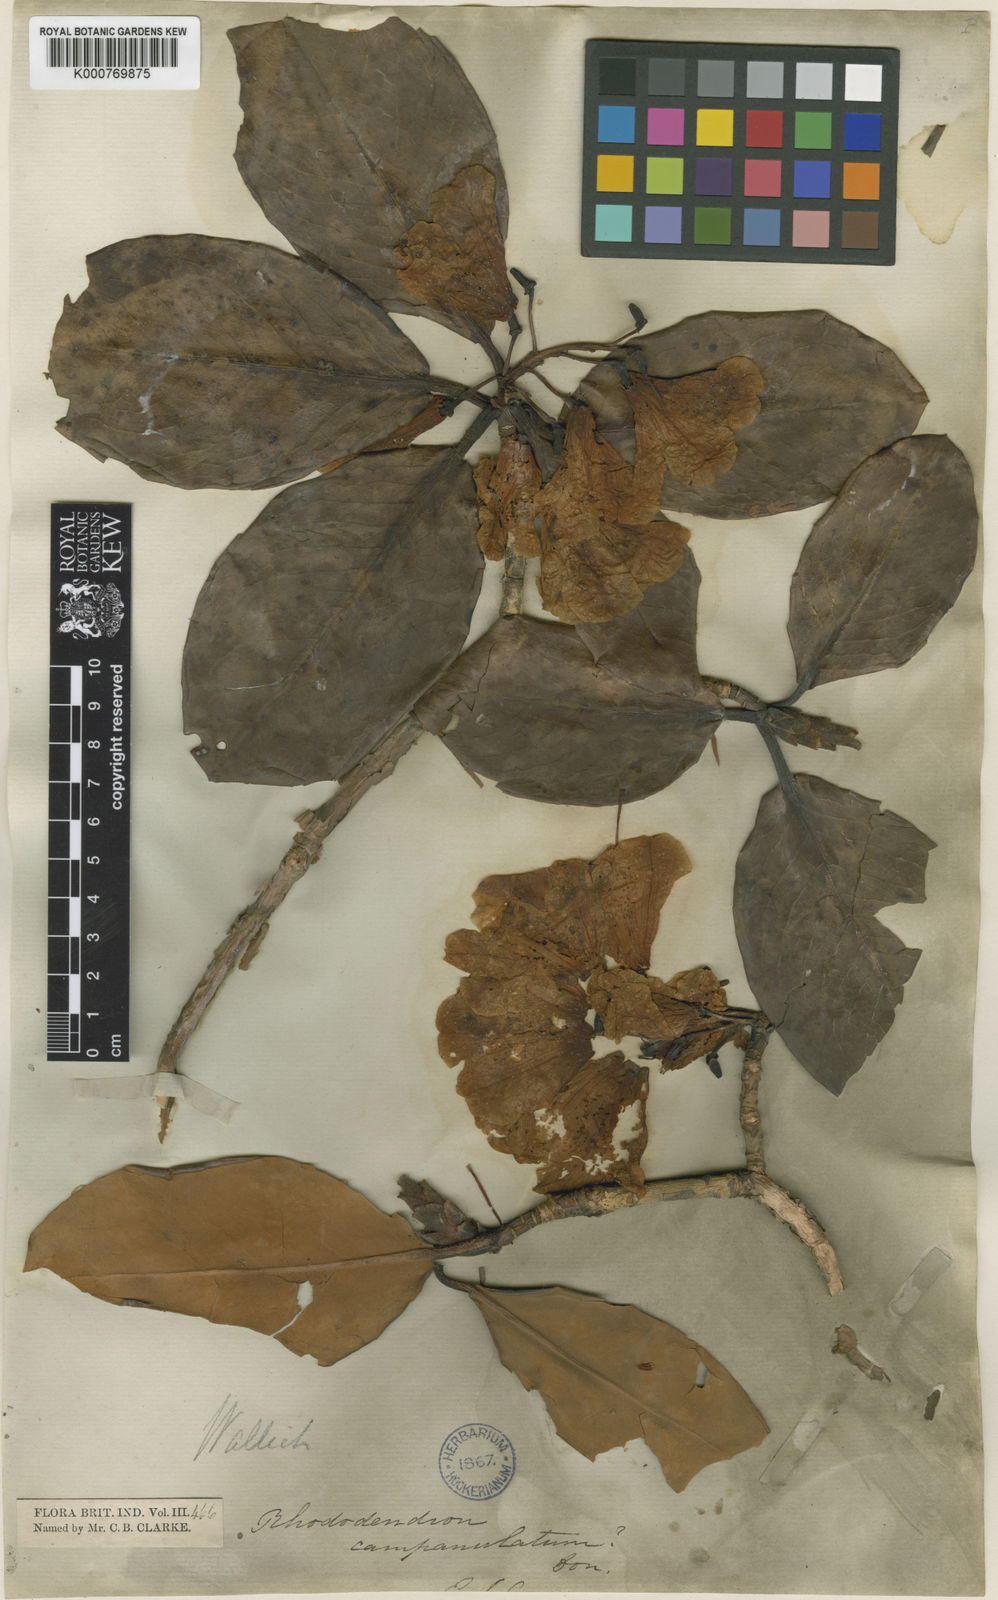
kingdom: Plantae
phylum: Tracheophyta
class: Magnoliopsida
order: Ericales
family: Ericaceae
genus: Rhododendron
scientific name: Rhododendron
